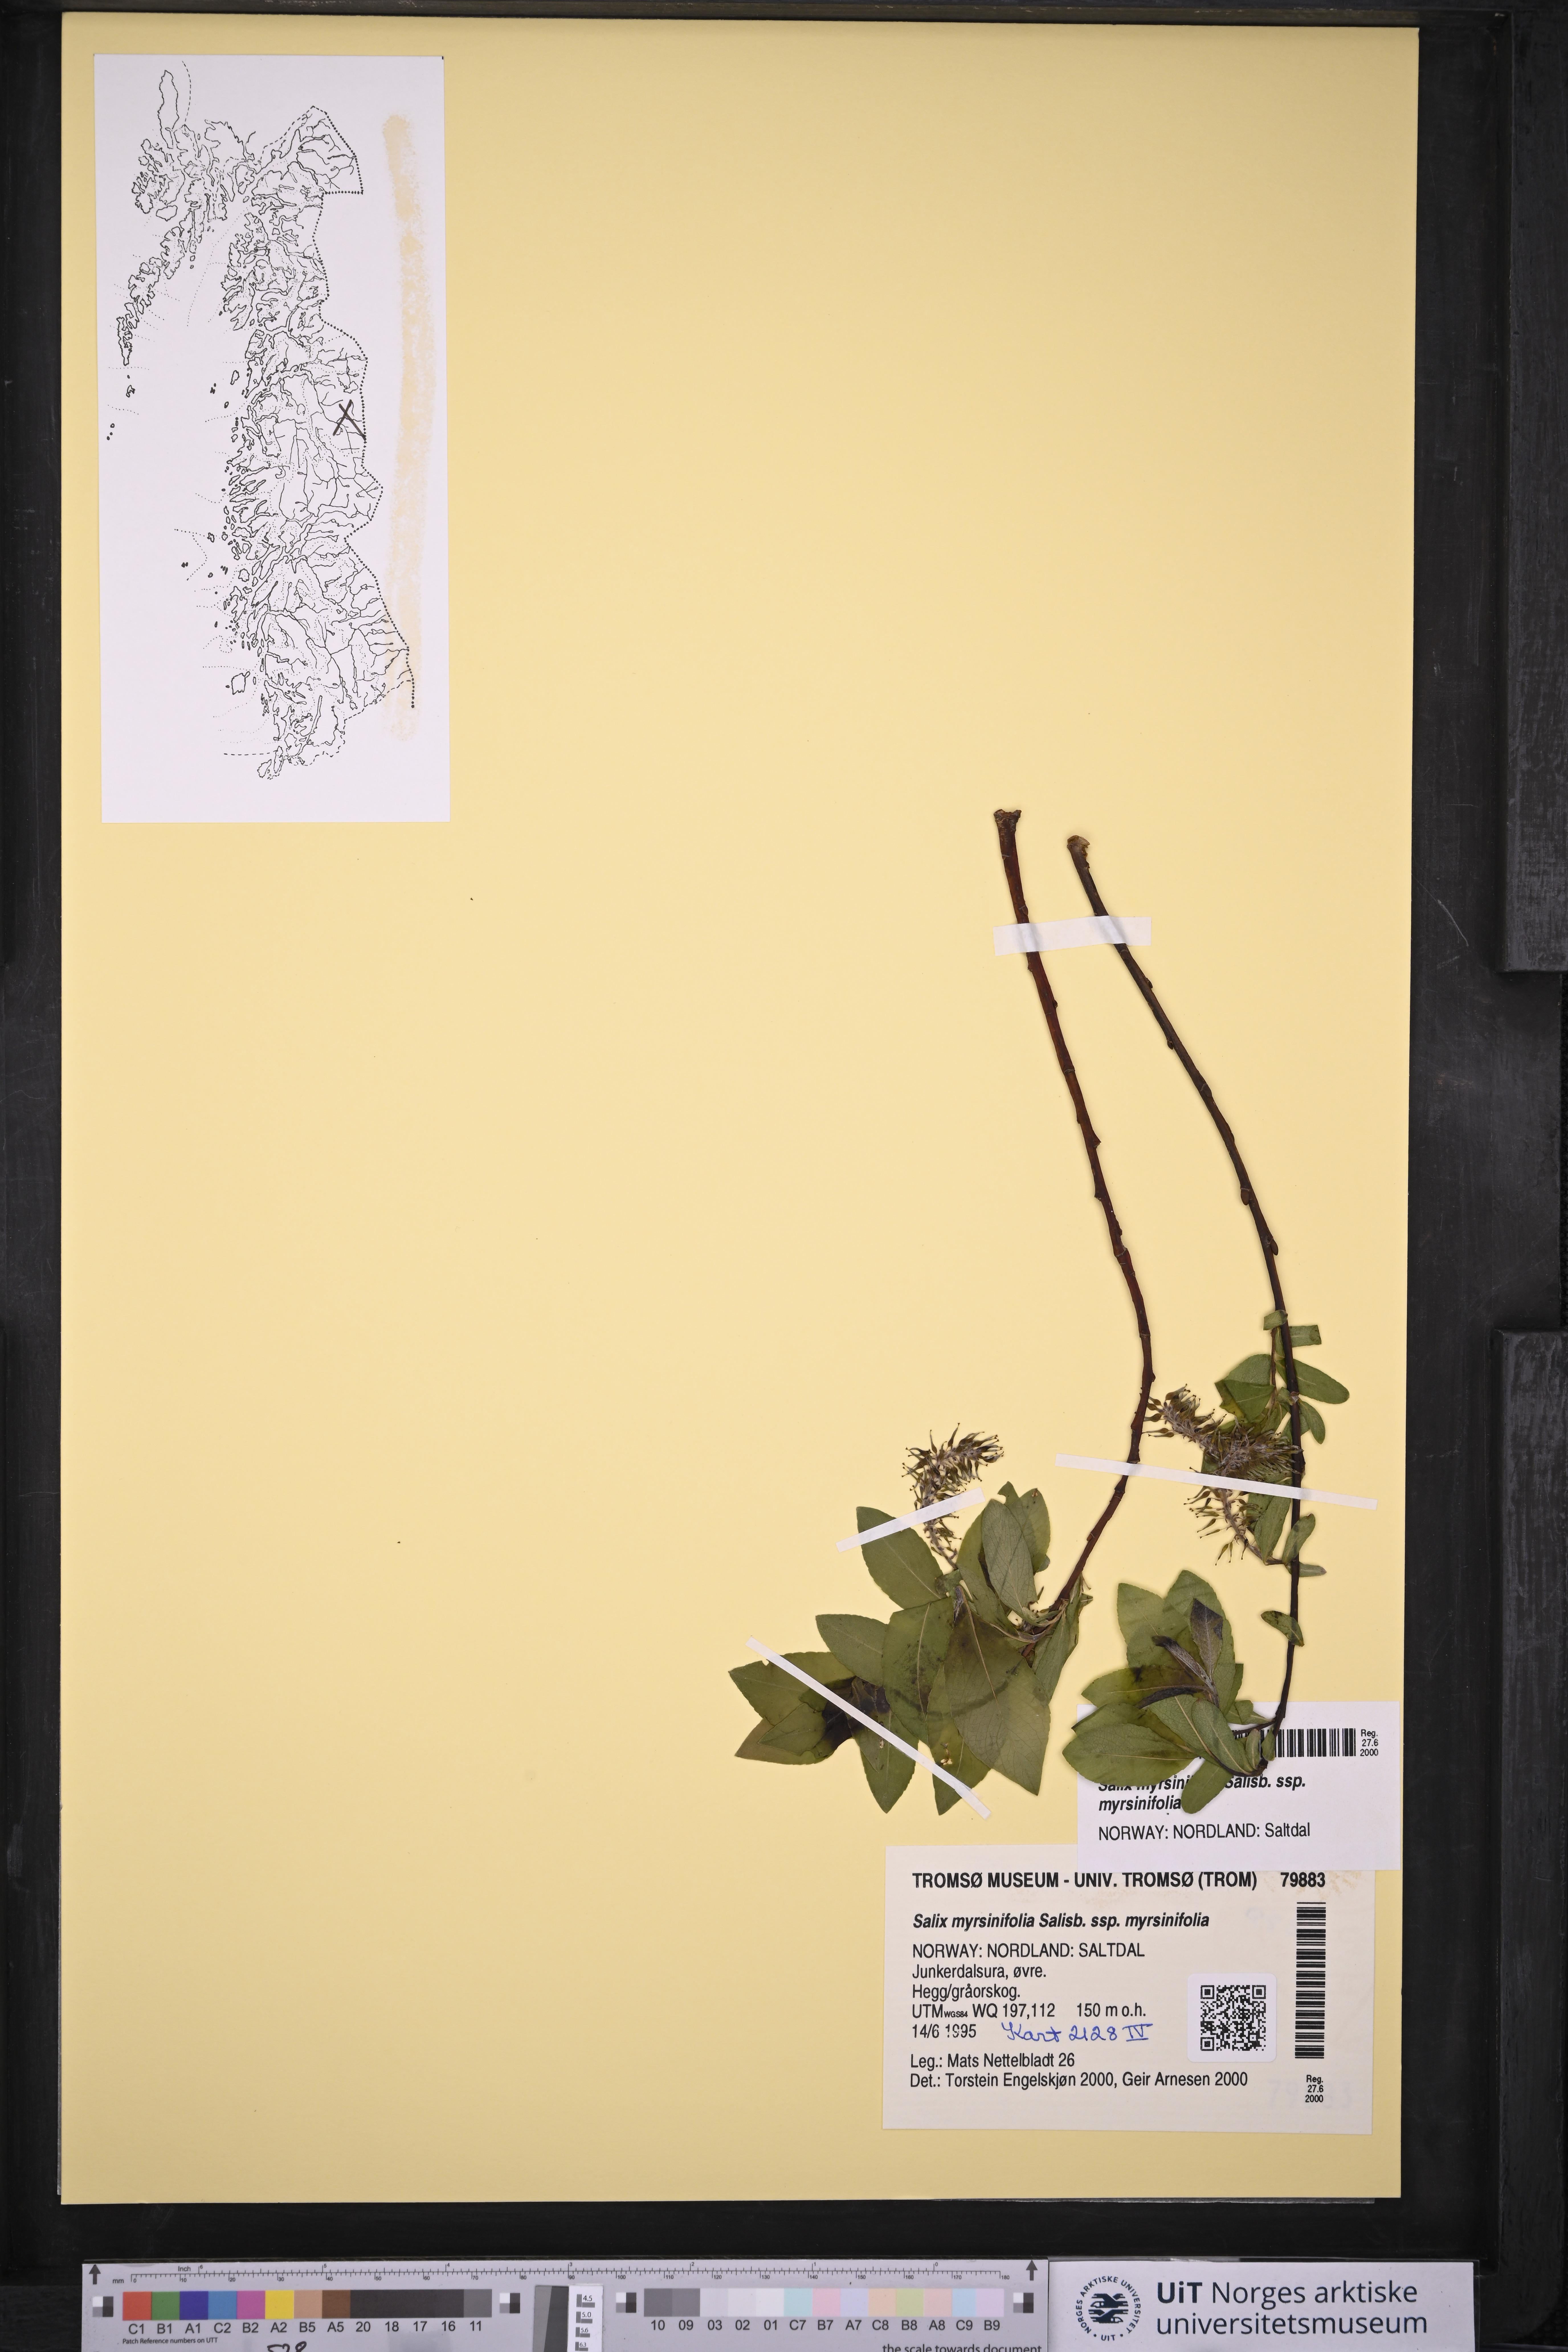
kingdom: Plantae
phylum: Tracheophyta
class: Magnoliopsida
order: Malpighiales
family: Salicaceae
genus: Salix
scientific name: Salix myrsinifolia
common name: Dark-leaved willow
